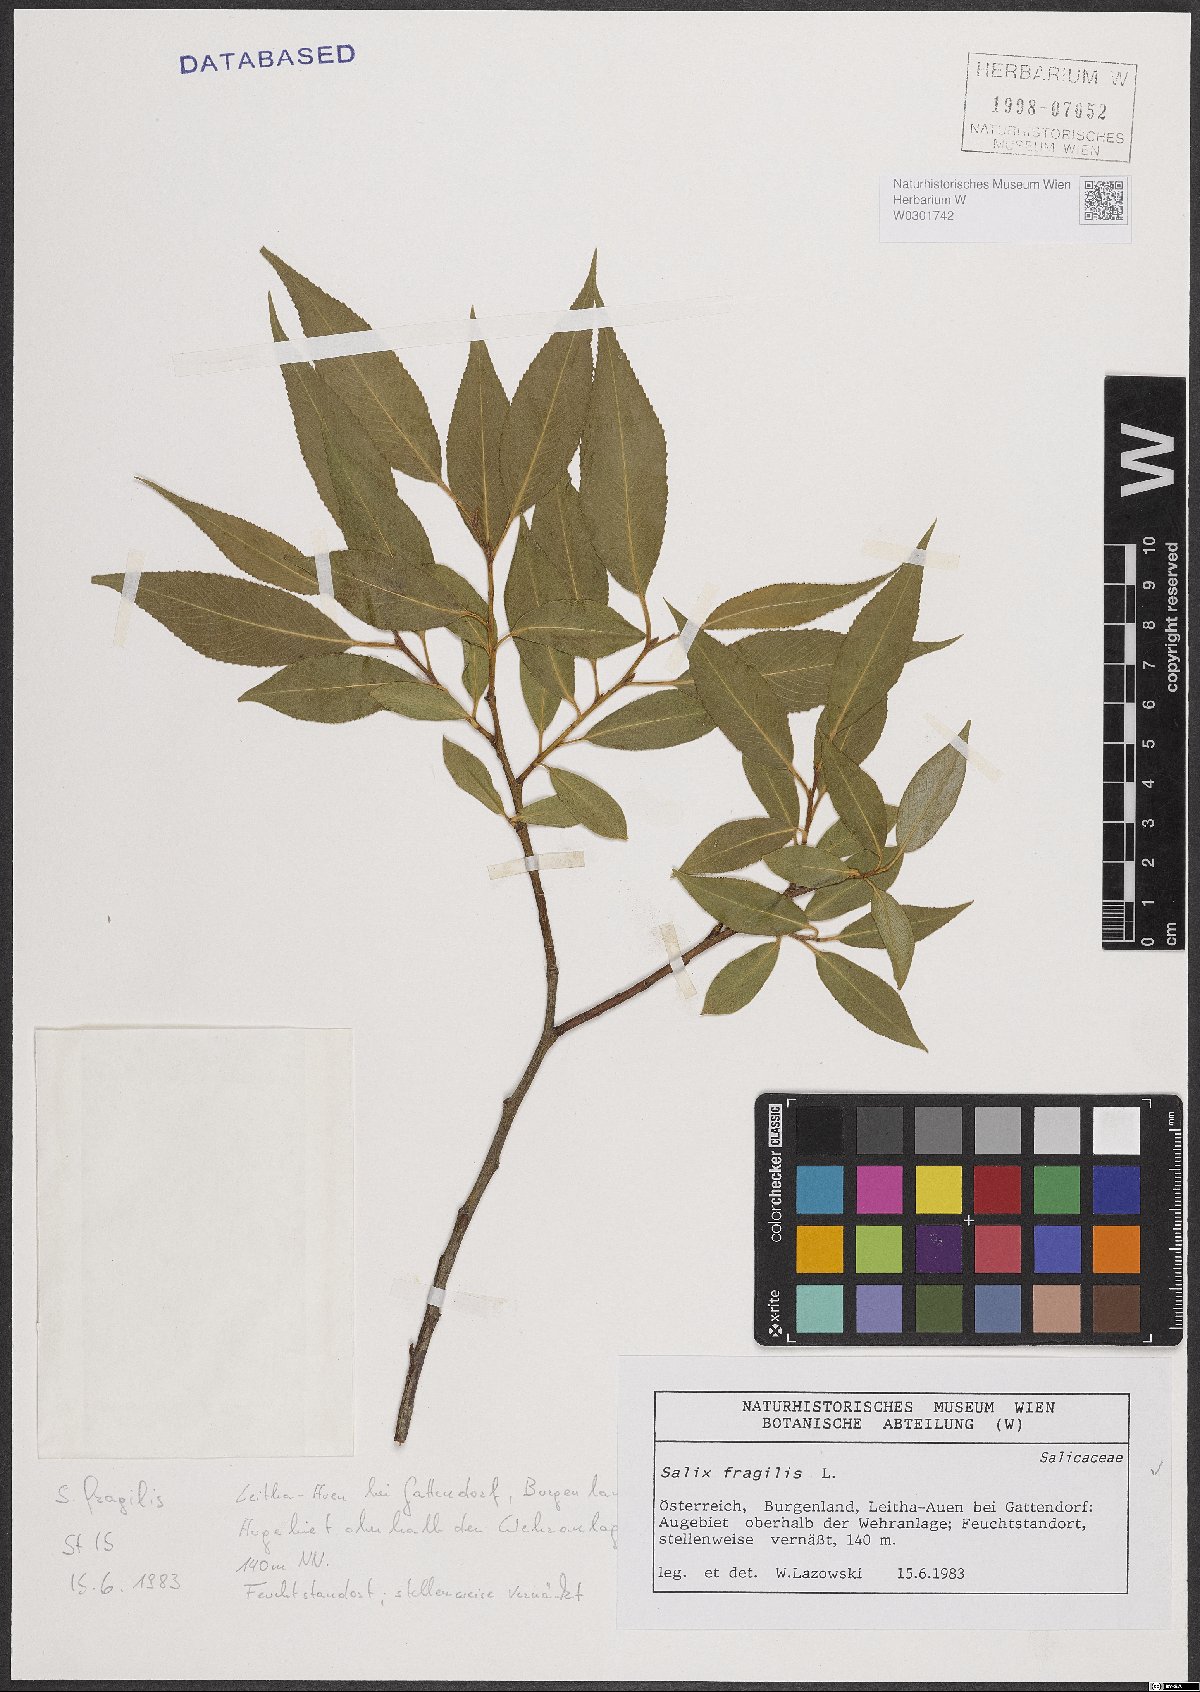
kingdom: Plantae
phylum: Tracheophyta
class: Magnoliopsida
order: Malpighiales
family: Salicaceae
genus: Salix
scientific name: Salix fragilis
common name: Crack willow
